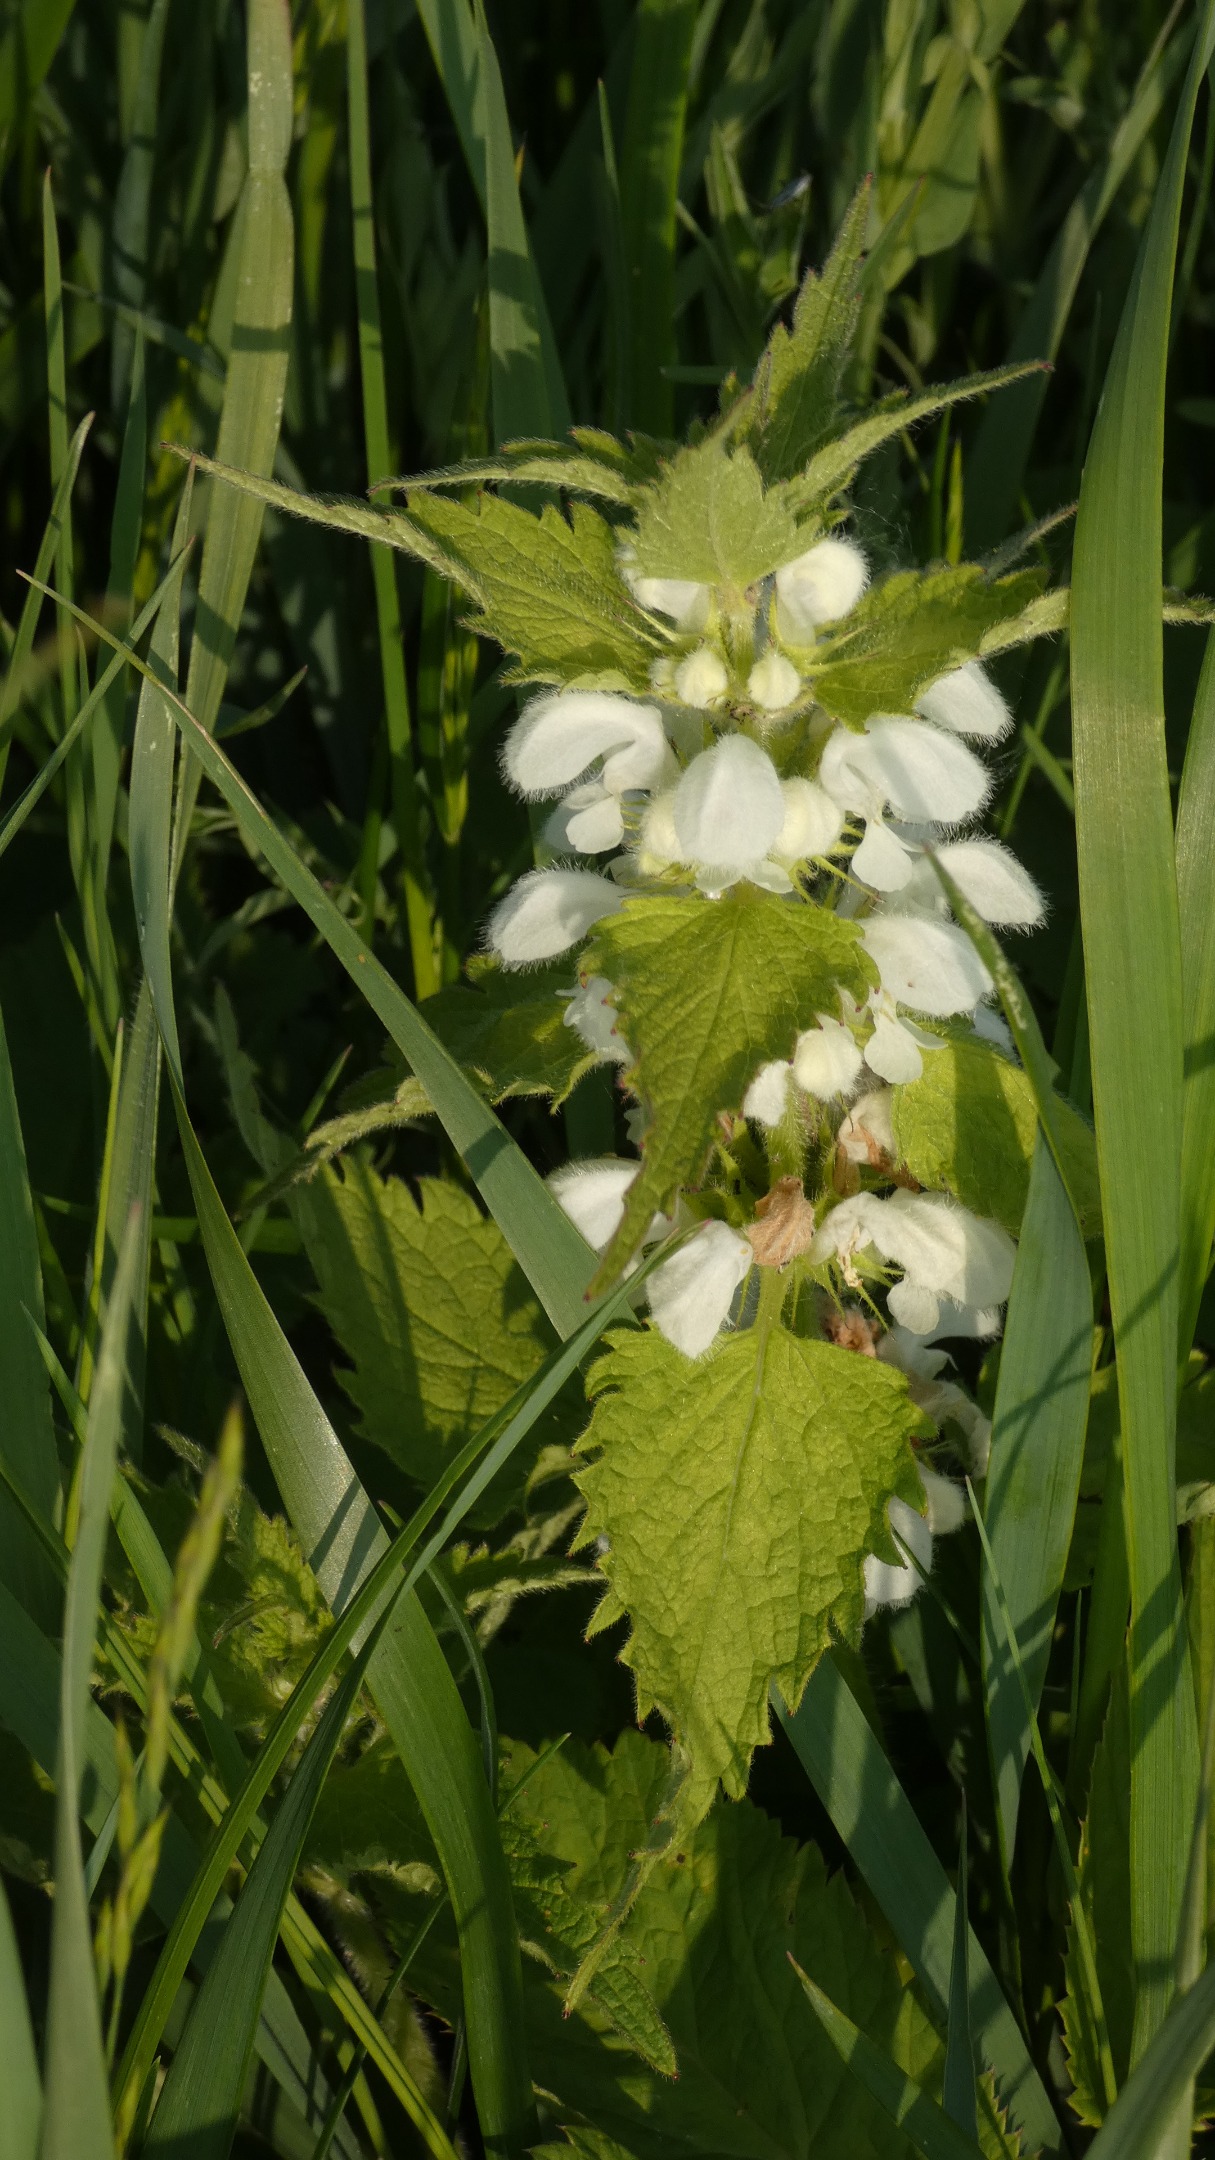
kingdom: Plantae
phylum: Tracheophyta
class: Magnoliopsida
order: Lamiales
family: Lamiaceae
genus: Lamium
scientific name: Lamium album
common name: Døvnælde
